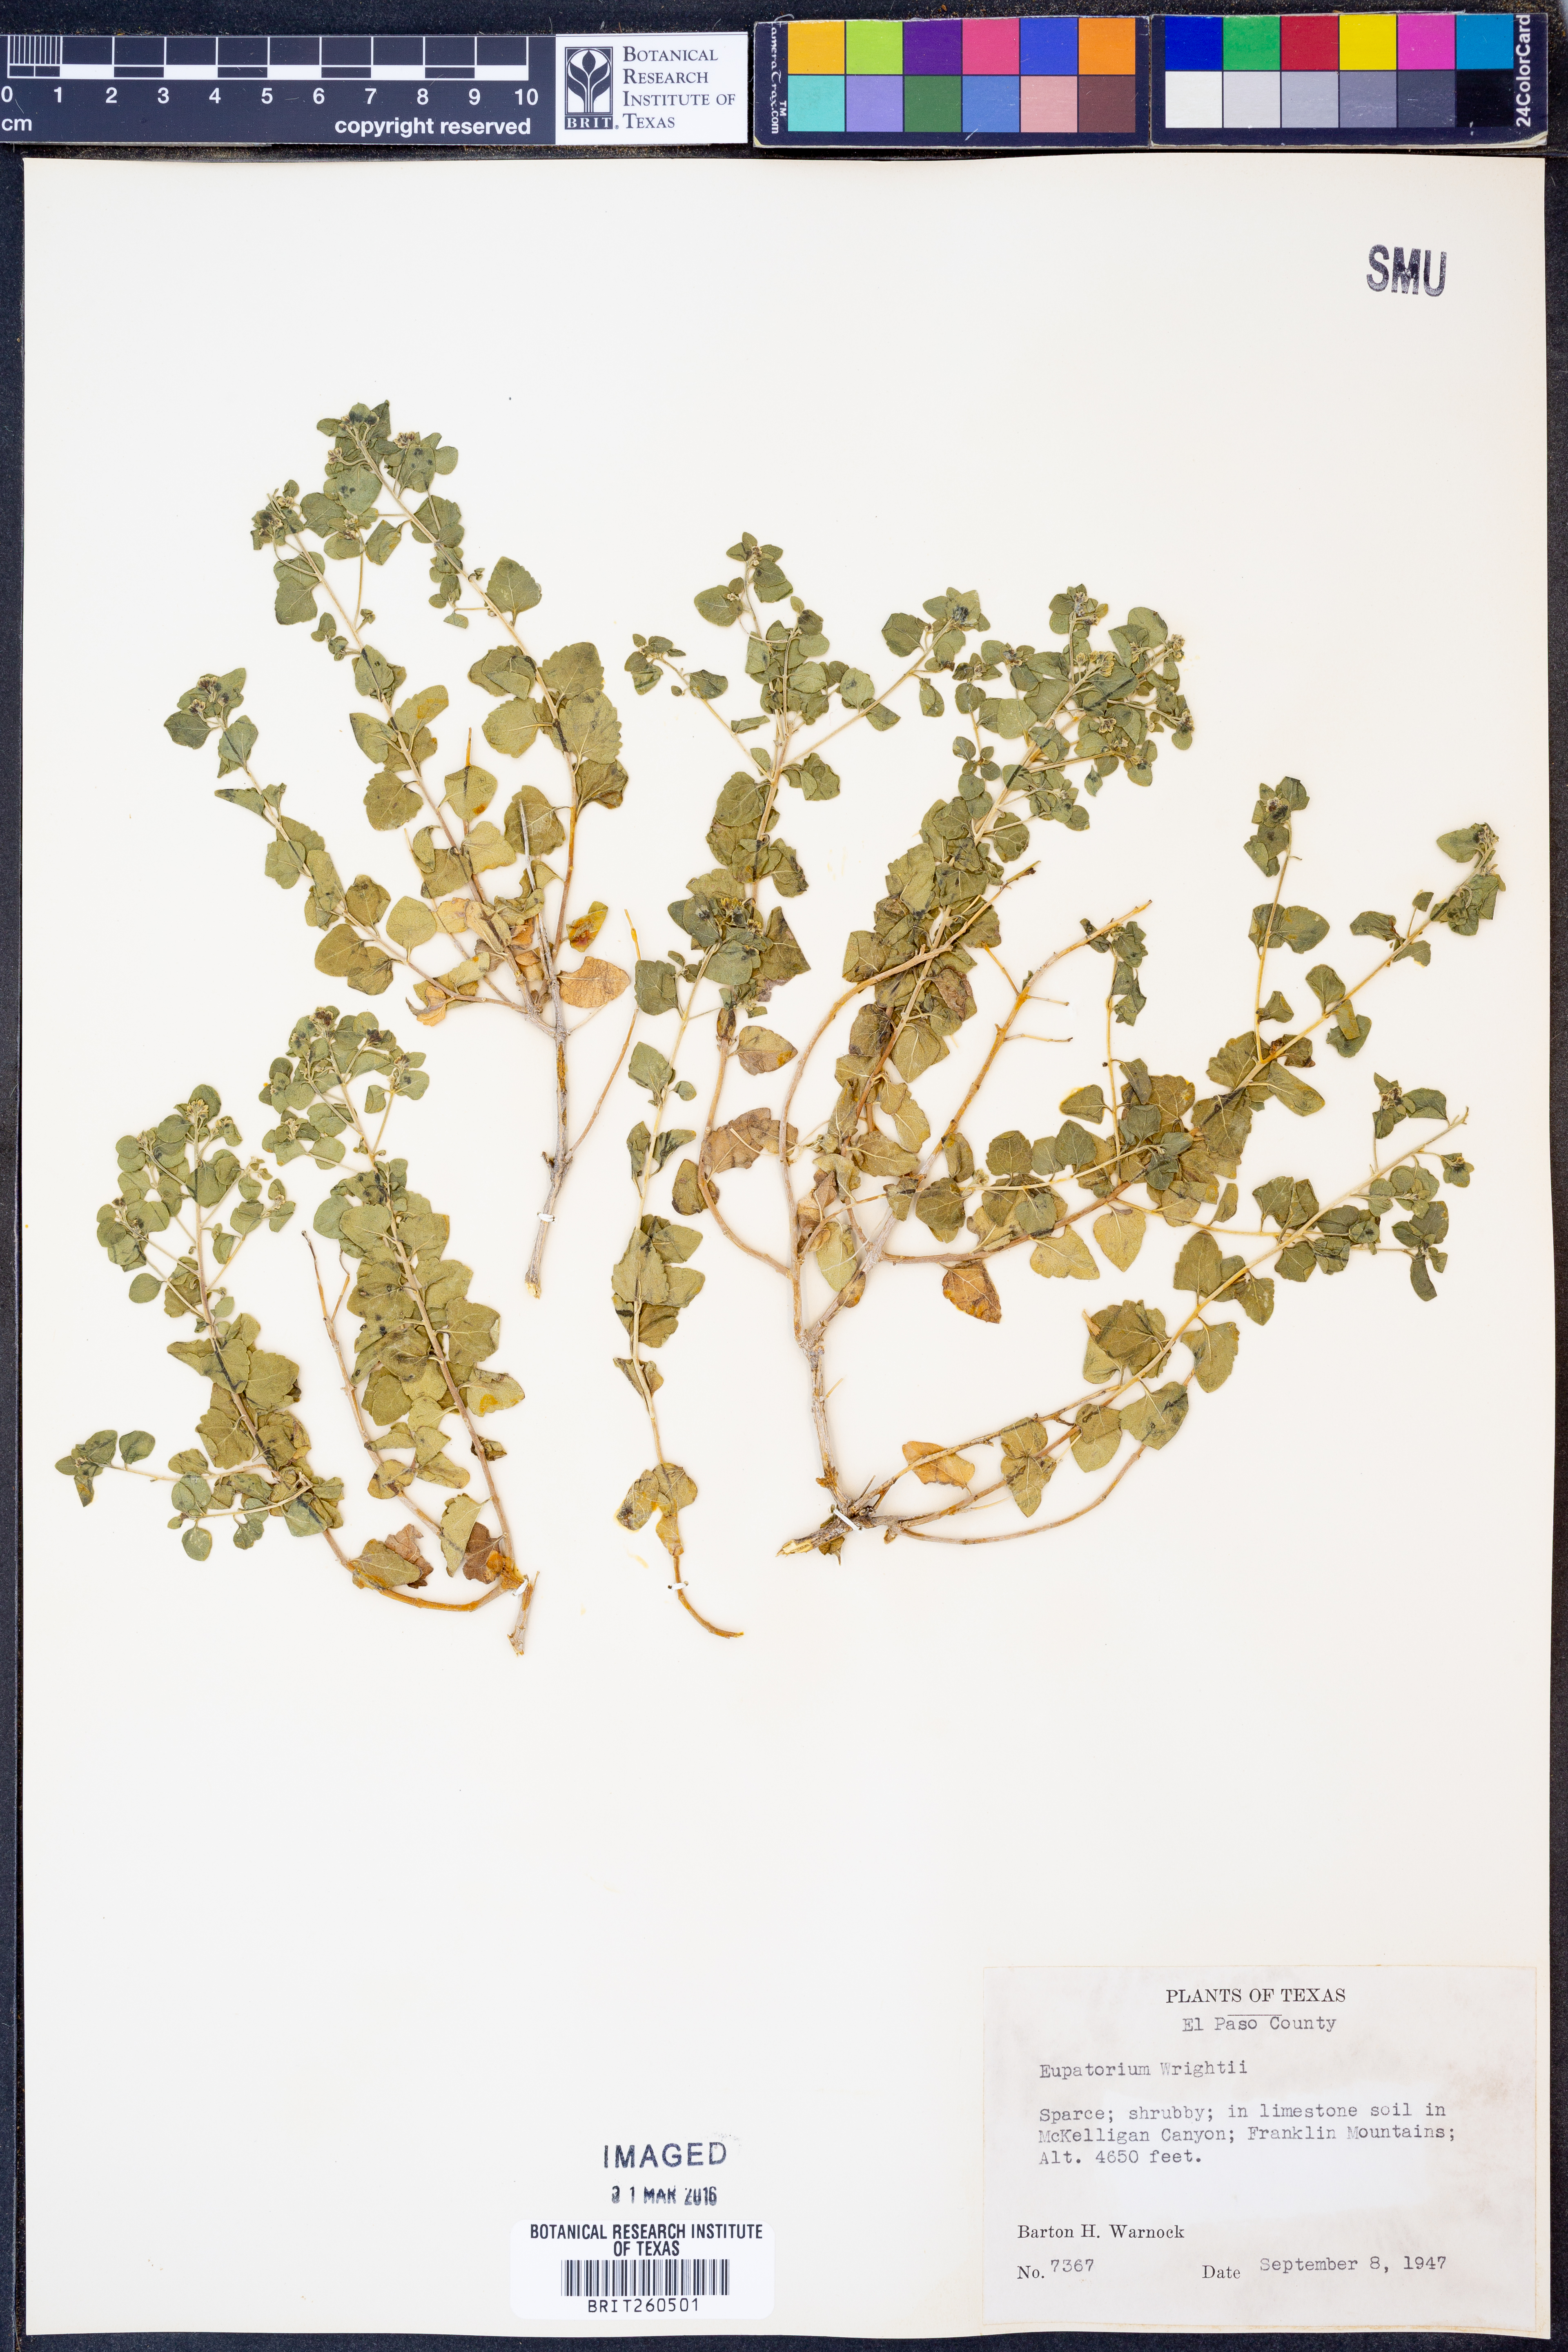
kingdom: Plantae
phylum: Tracheophyta
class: Magnoliopsida
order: Asterales
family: Asteraceae
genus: Ageratina
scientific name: Ageratina wrightii
